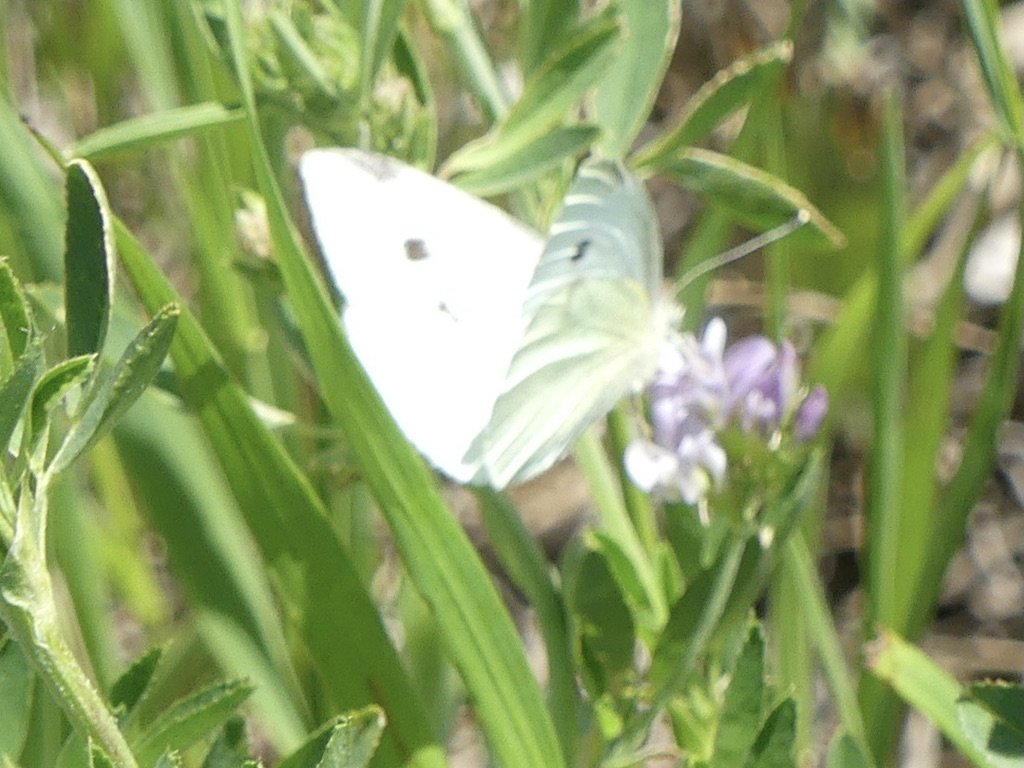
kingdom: Animalia
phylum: Arthropoda
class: Insecta
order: Lepidoptera
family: Pieridae
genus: Pieris
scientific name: Pieris rapae
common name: Cabbage White
